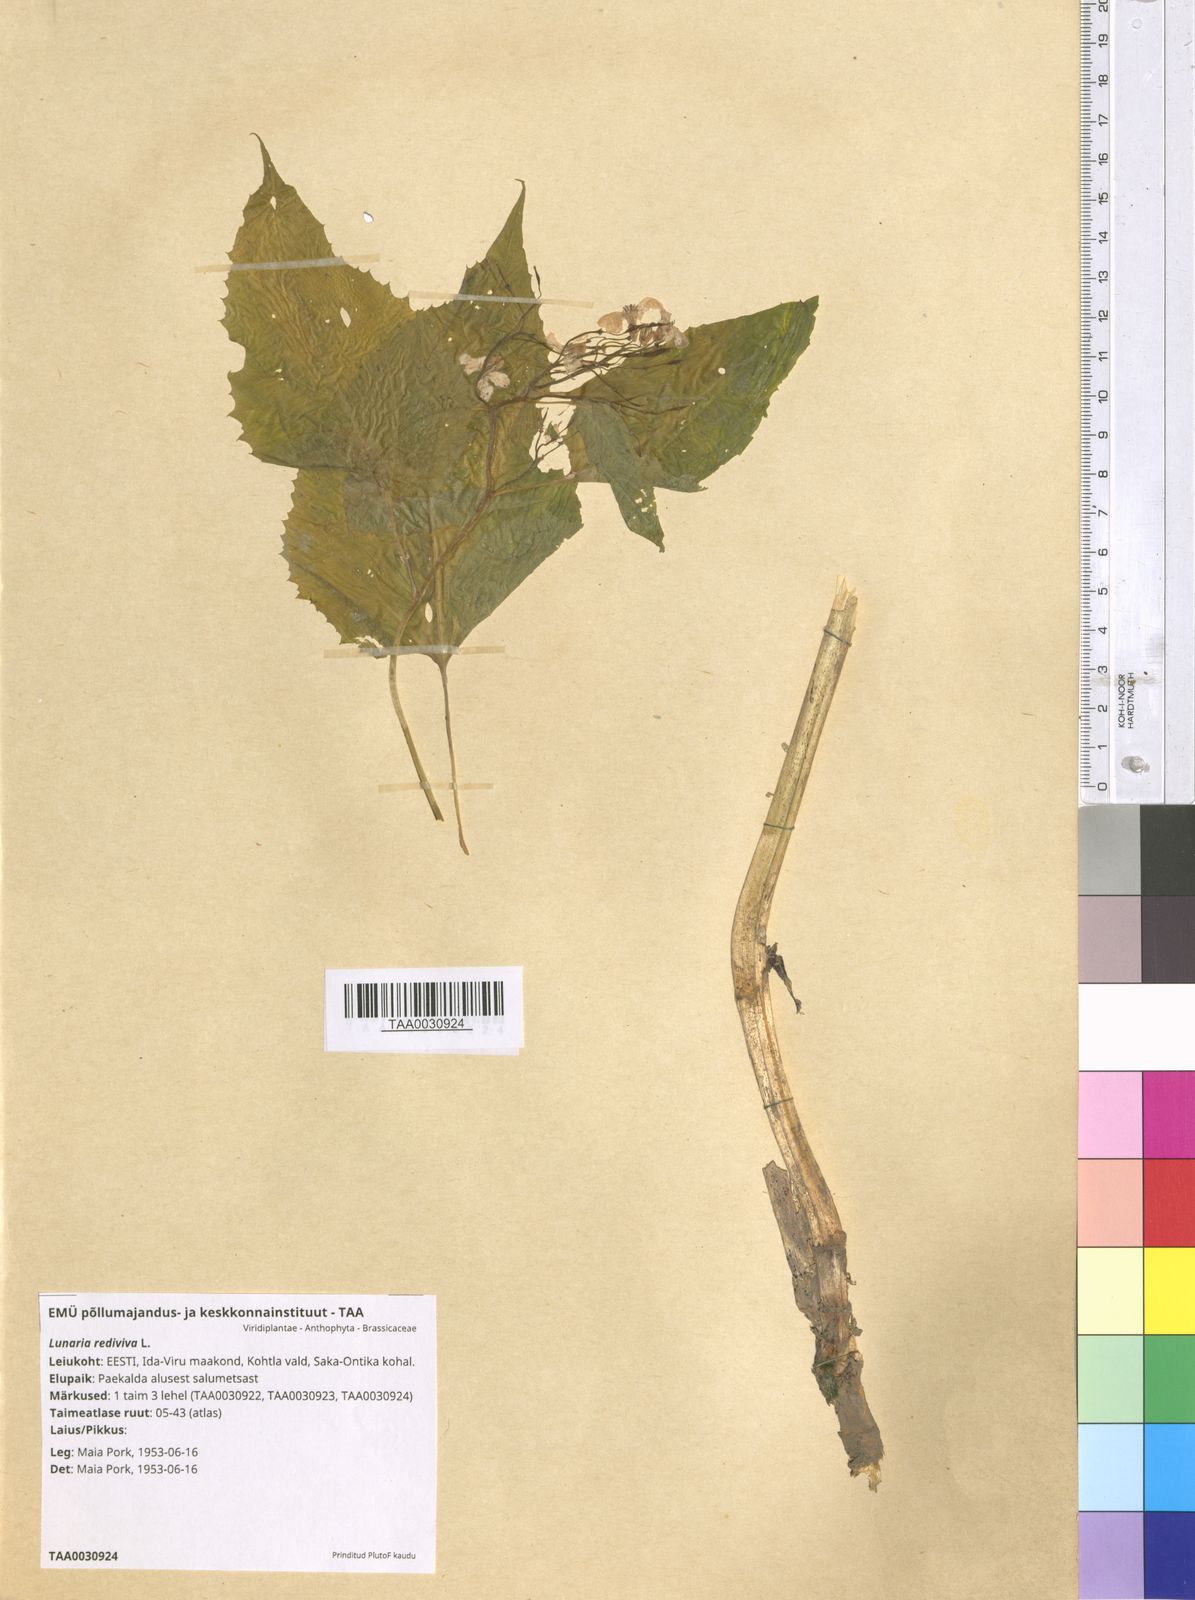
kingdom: Plantae
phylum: Tracheophyta
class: Magnoliopsida
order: Brassicales
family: Brassicaceae
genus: Lunaria
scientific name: Lunaria rediviva
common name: Perennial honesty
